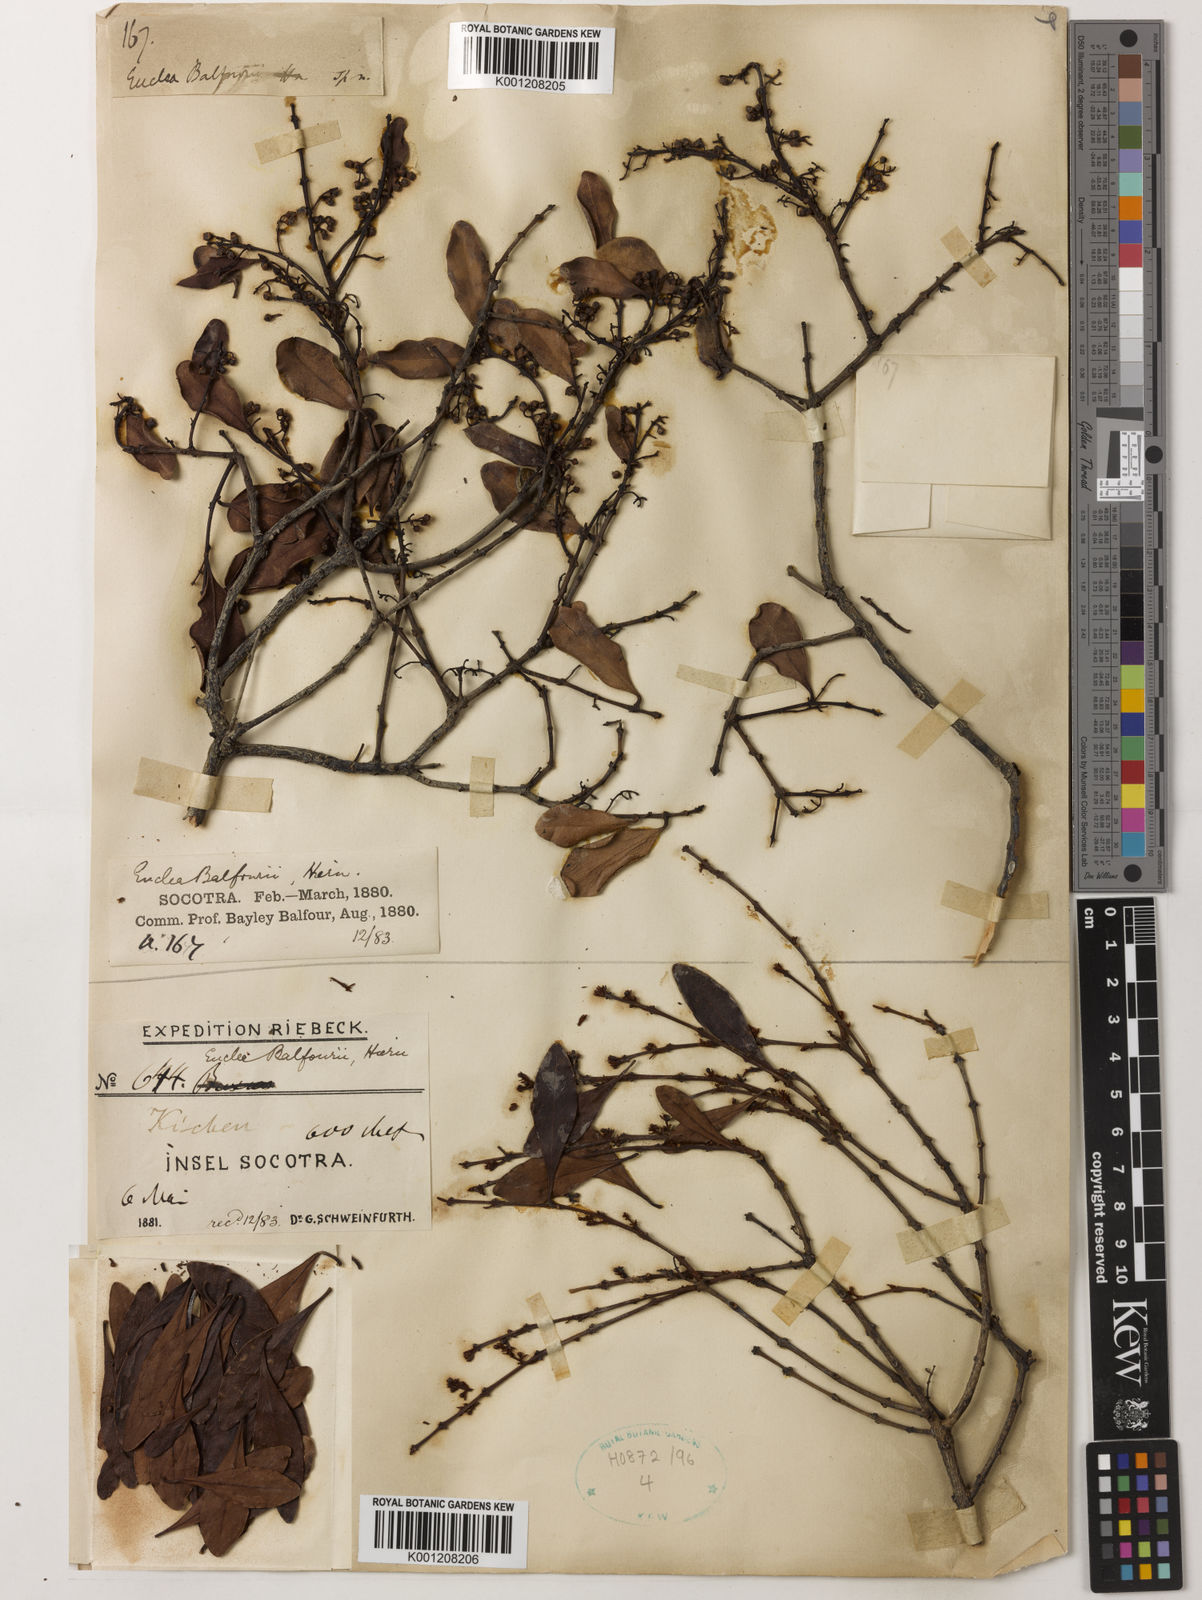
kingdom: Plantae
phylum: Tracheophyta
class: Magnoliopsida
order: Ericales
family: Ebenaceae
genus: Euclea
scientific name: Euclea divinorum
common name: Diamond-leaved euclea
